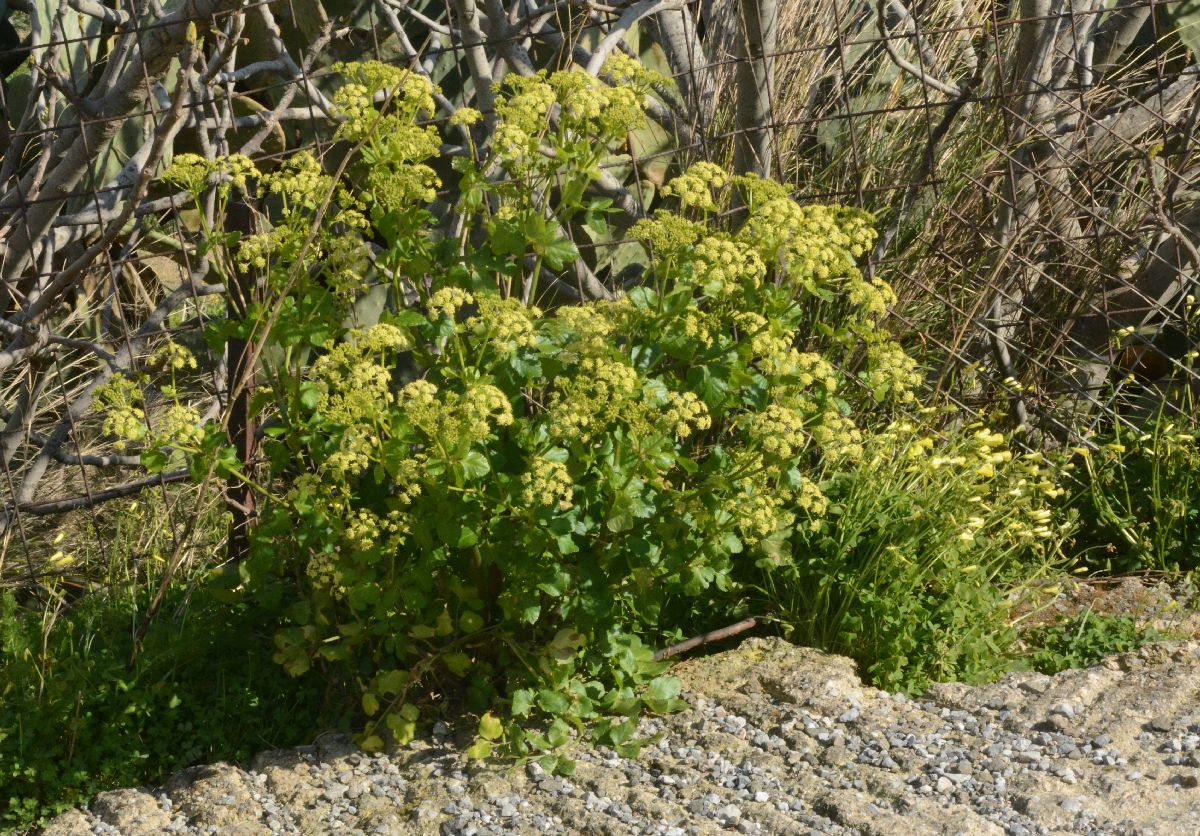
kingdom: Plantae
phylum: Tracheophyta
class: Magnoliopsida
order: Apiales
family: Apiaceae
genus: Smyrnium
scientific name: Smyrnium olusatrum
